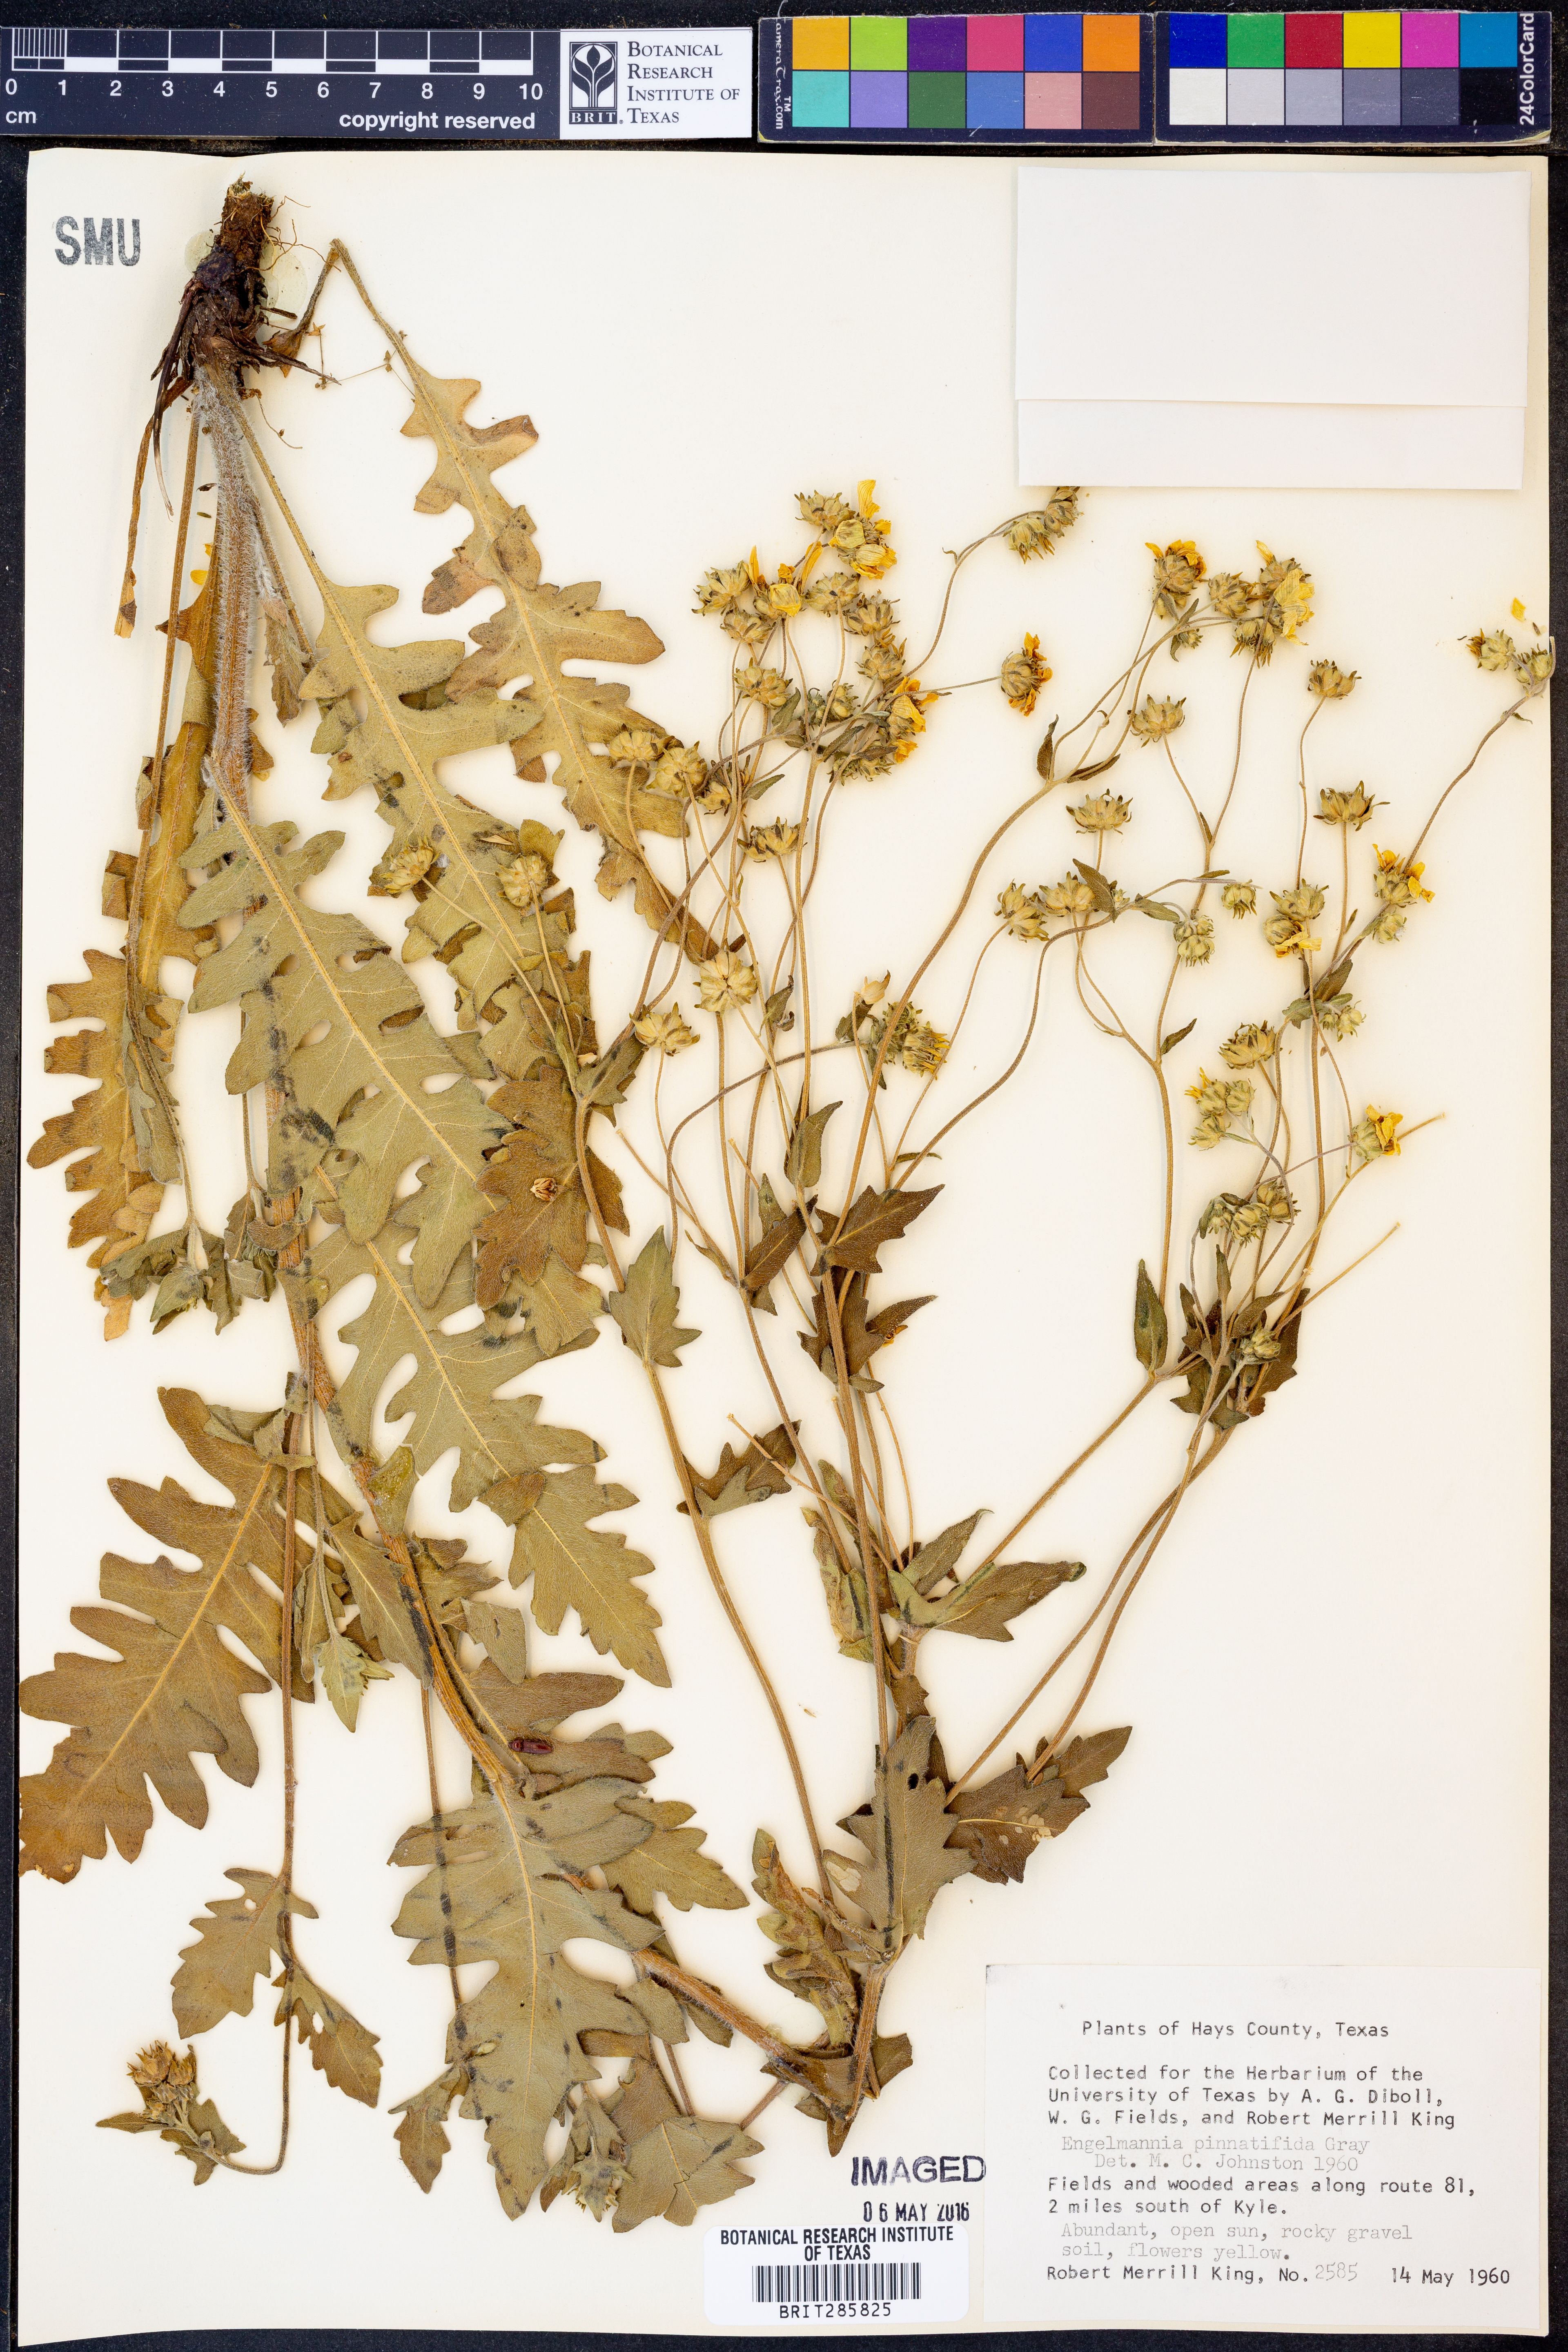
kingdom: Plantae
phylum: Tracheophyta
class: Magnoliopsida
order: Asterales
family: Asteraceae
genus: Engelmannia
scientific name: Engelmannia peristenia
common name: Engelmann's daisy
